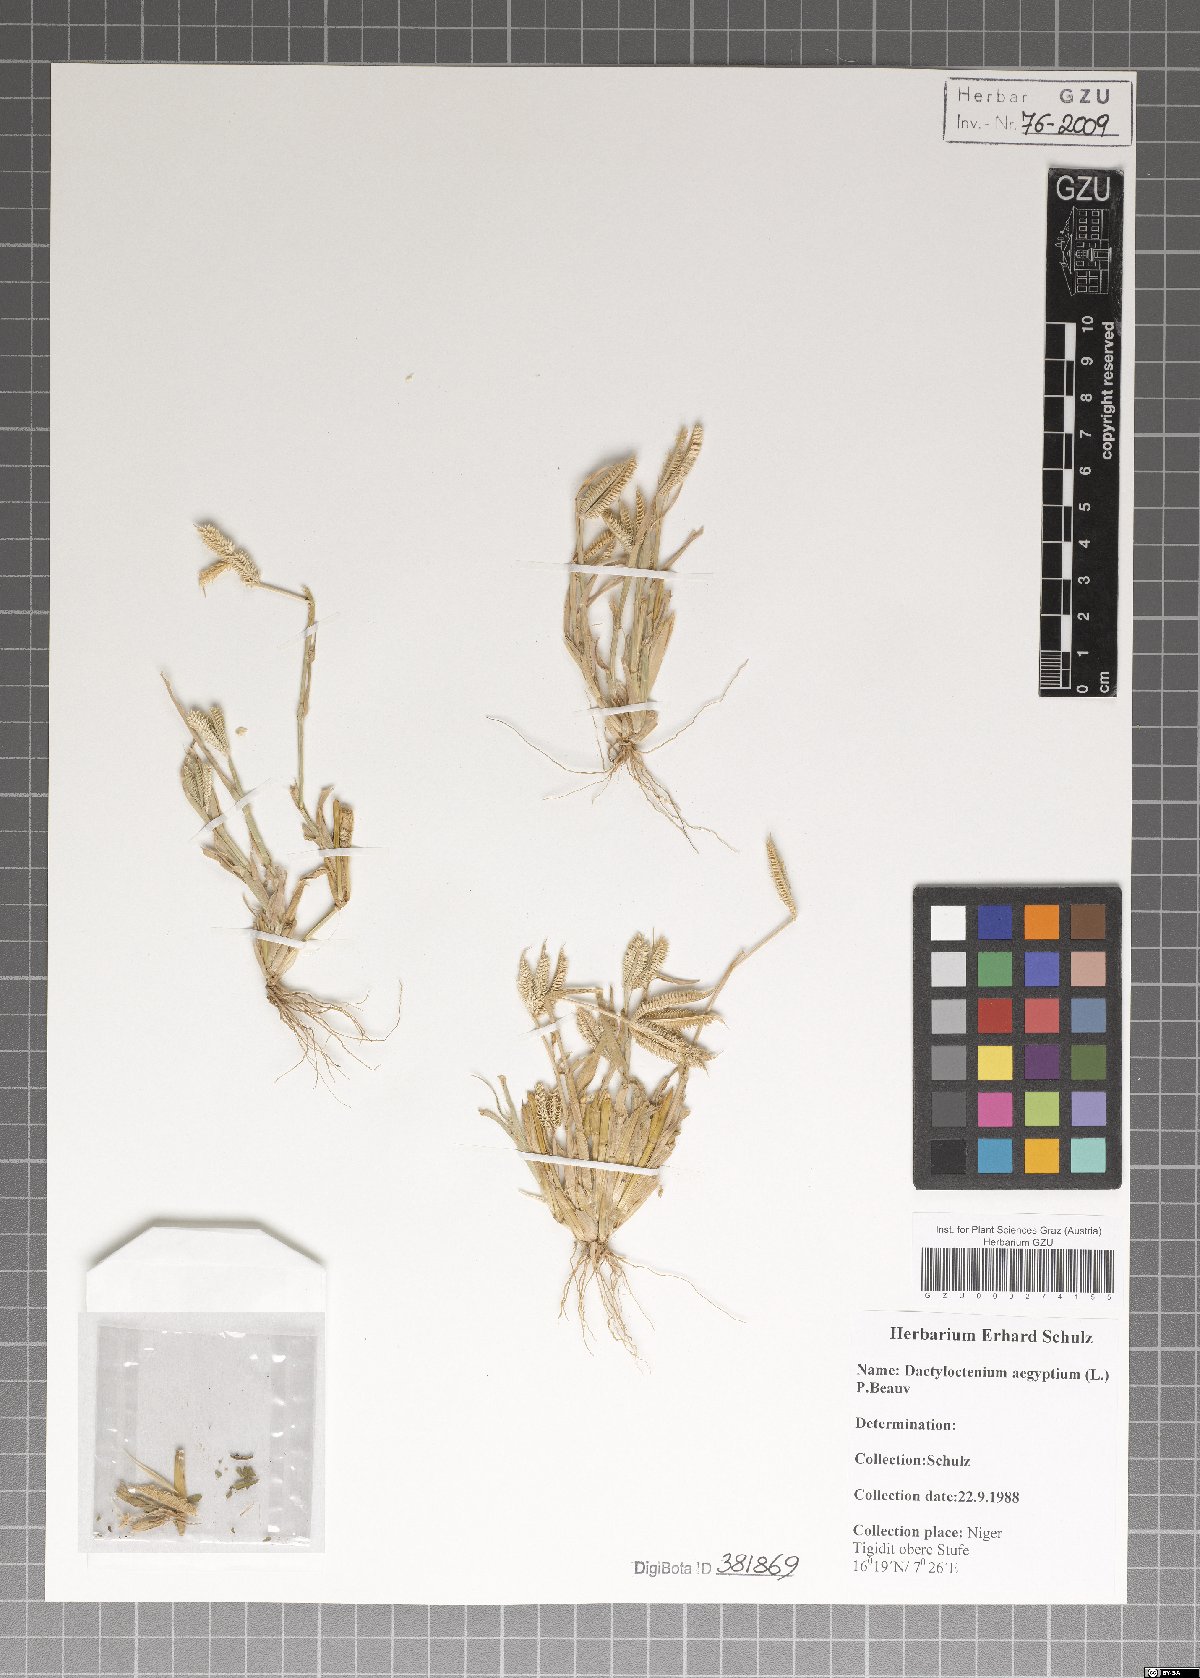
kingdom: Plantae
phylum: Tracheophyta
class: Liliopsida
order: Poales
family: Poaceae
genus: Dactyloctenium
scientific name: Dactyloctenium aegyptium
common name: Egyptian grass
